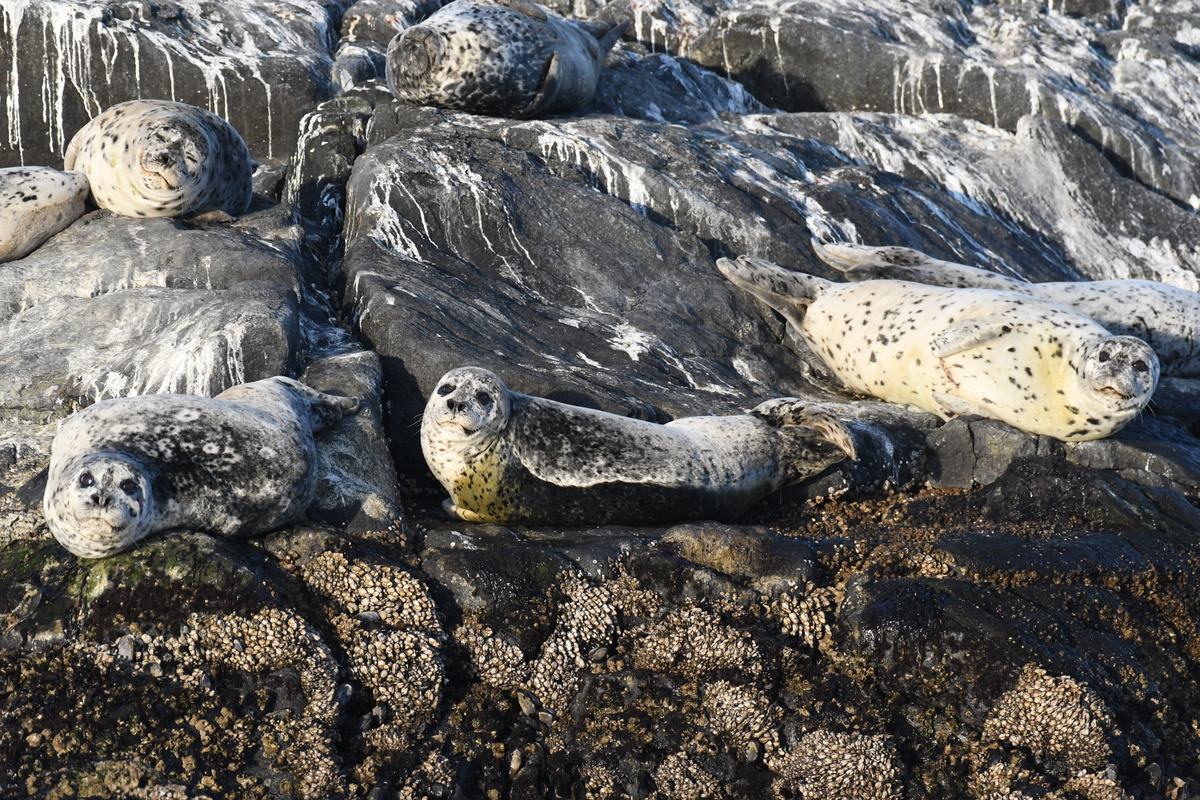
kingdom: Animalia
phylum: Chordata
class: Mammalia
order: Carnivora
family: Phocidae
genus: Phoca
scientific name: Phoca vitulina
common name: Harbor seal
